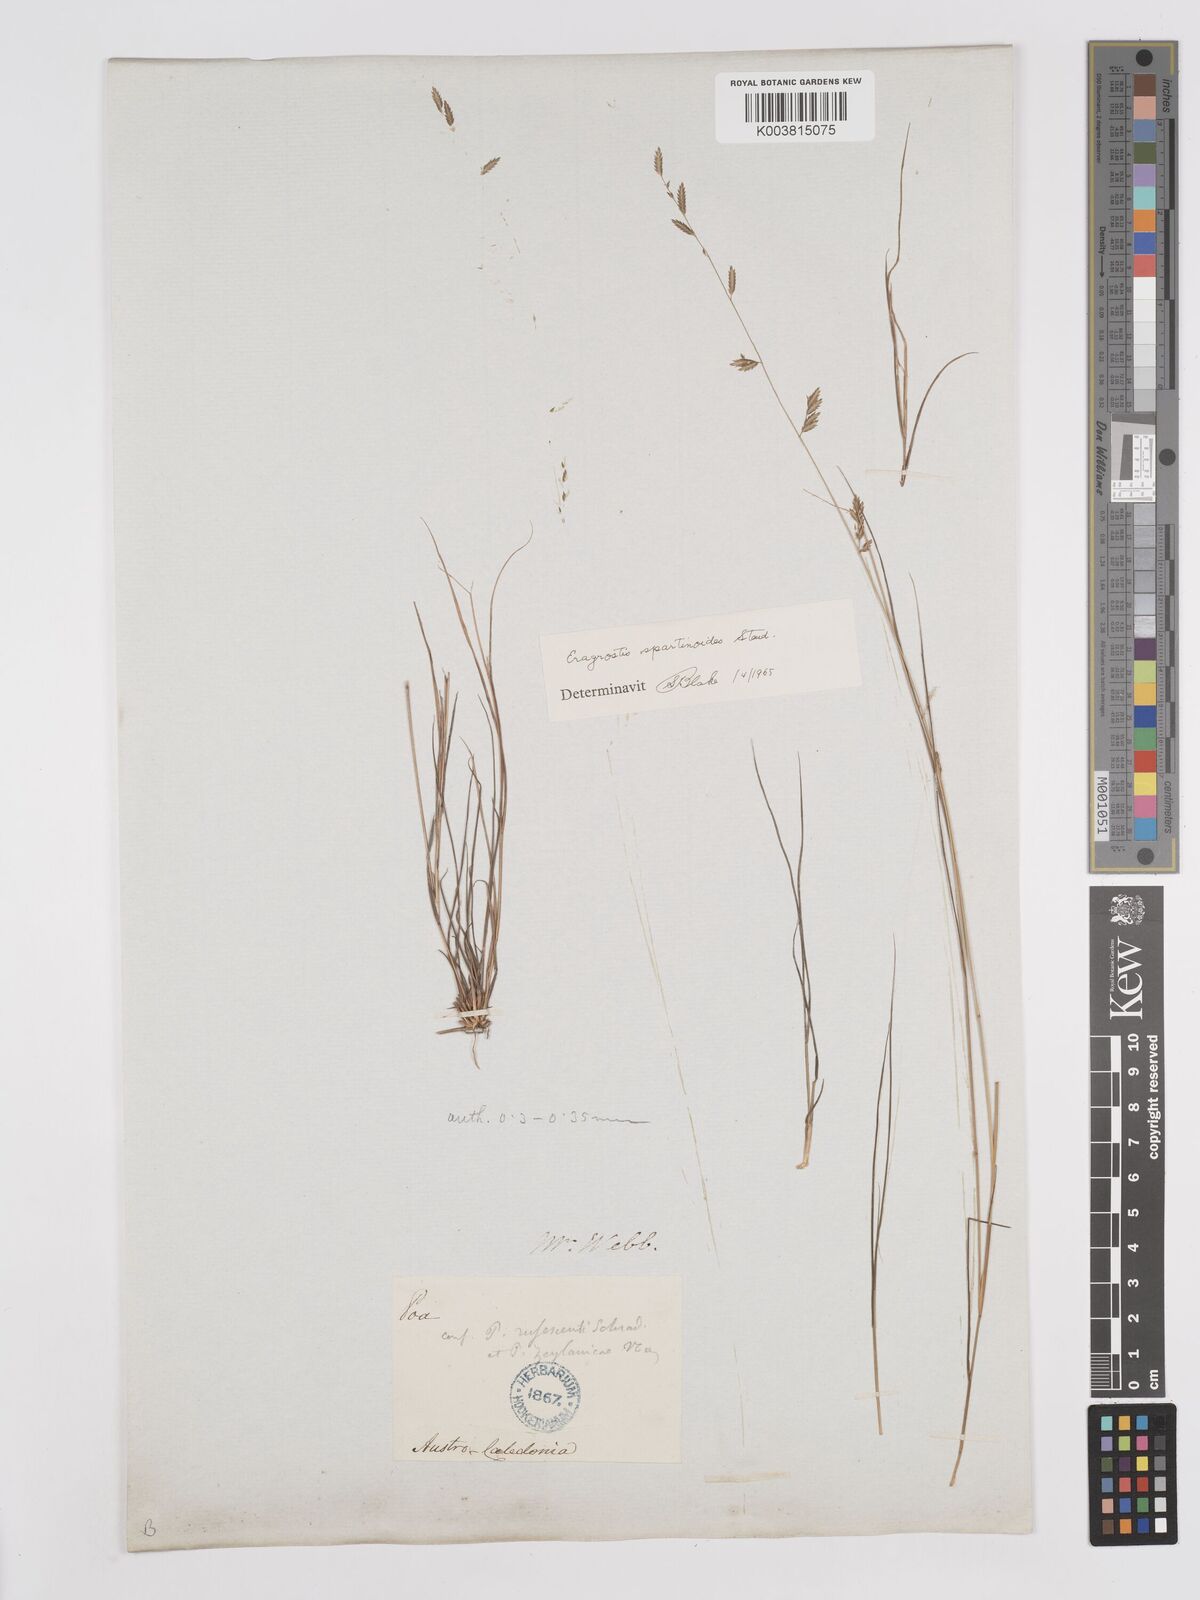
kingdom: Plantae
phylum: Tracheophyta
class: Liliopsida
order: Poales
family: Poaceae
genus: Eragrostis
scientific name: Eragrostis brownii
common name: Lovegrass
